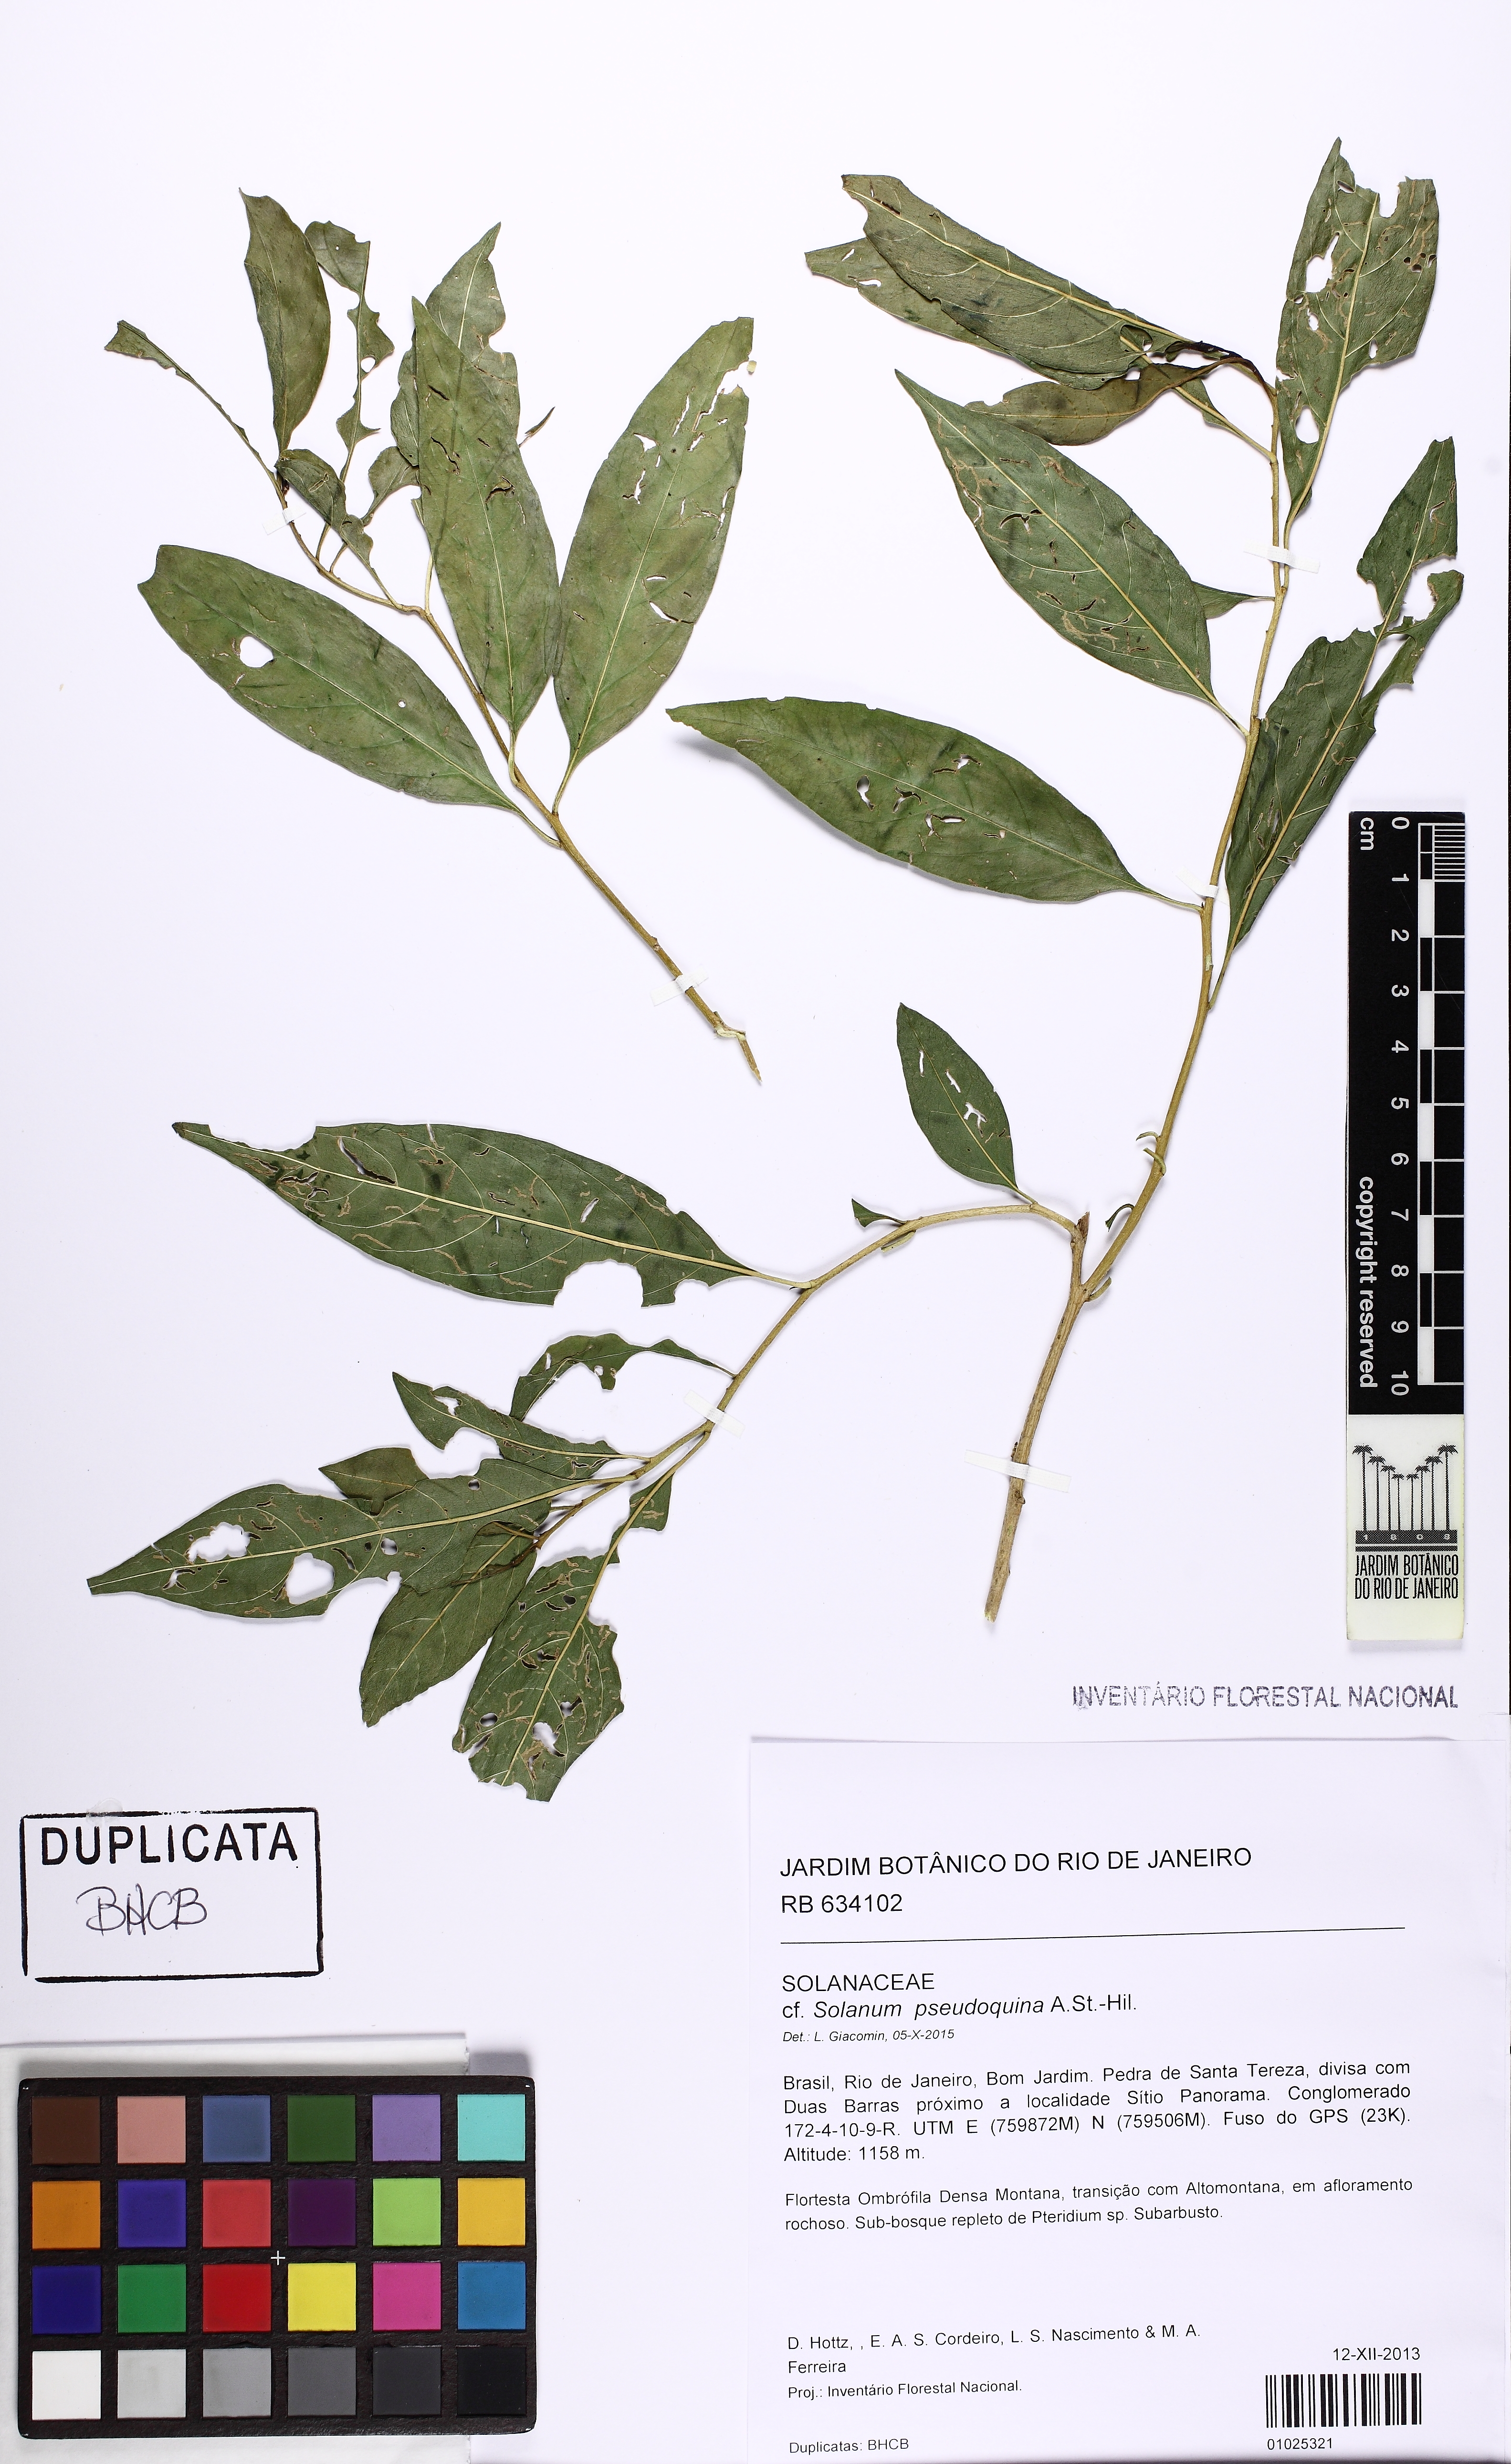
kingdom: Plantae
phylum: Tracheophyta
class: Magnoliopsida
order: Solanales
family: Solanaceae
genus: Solanum
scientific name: Solanum pseudoquina
